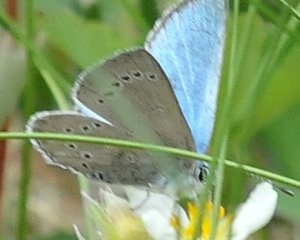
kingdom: Animalia
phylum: Arthropoda
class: Insecta
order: Lepidoptera
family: Lycaenidae
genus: Glaucopsyche
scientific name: Glaucopsyche lygdamus
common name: Silvery Blue
